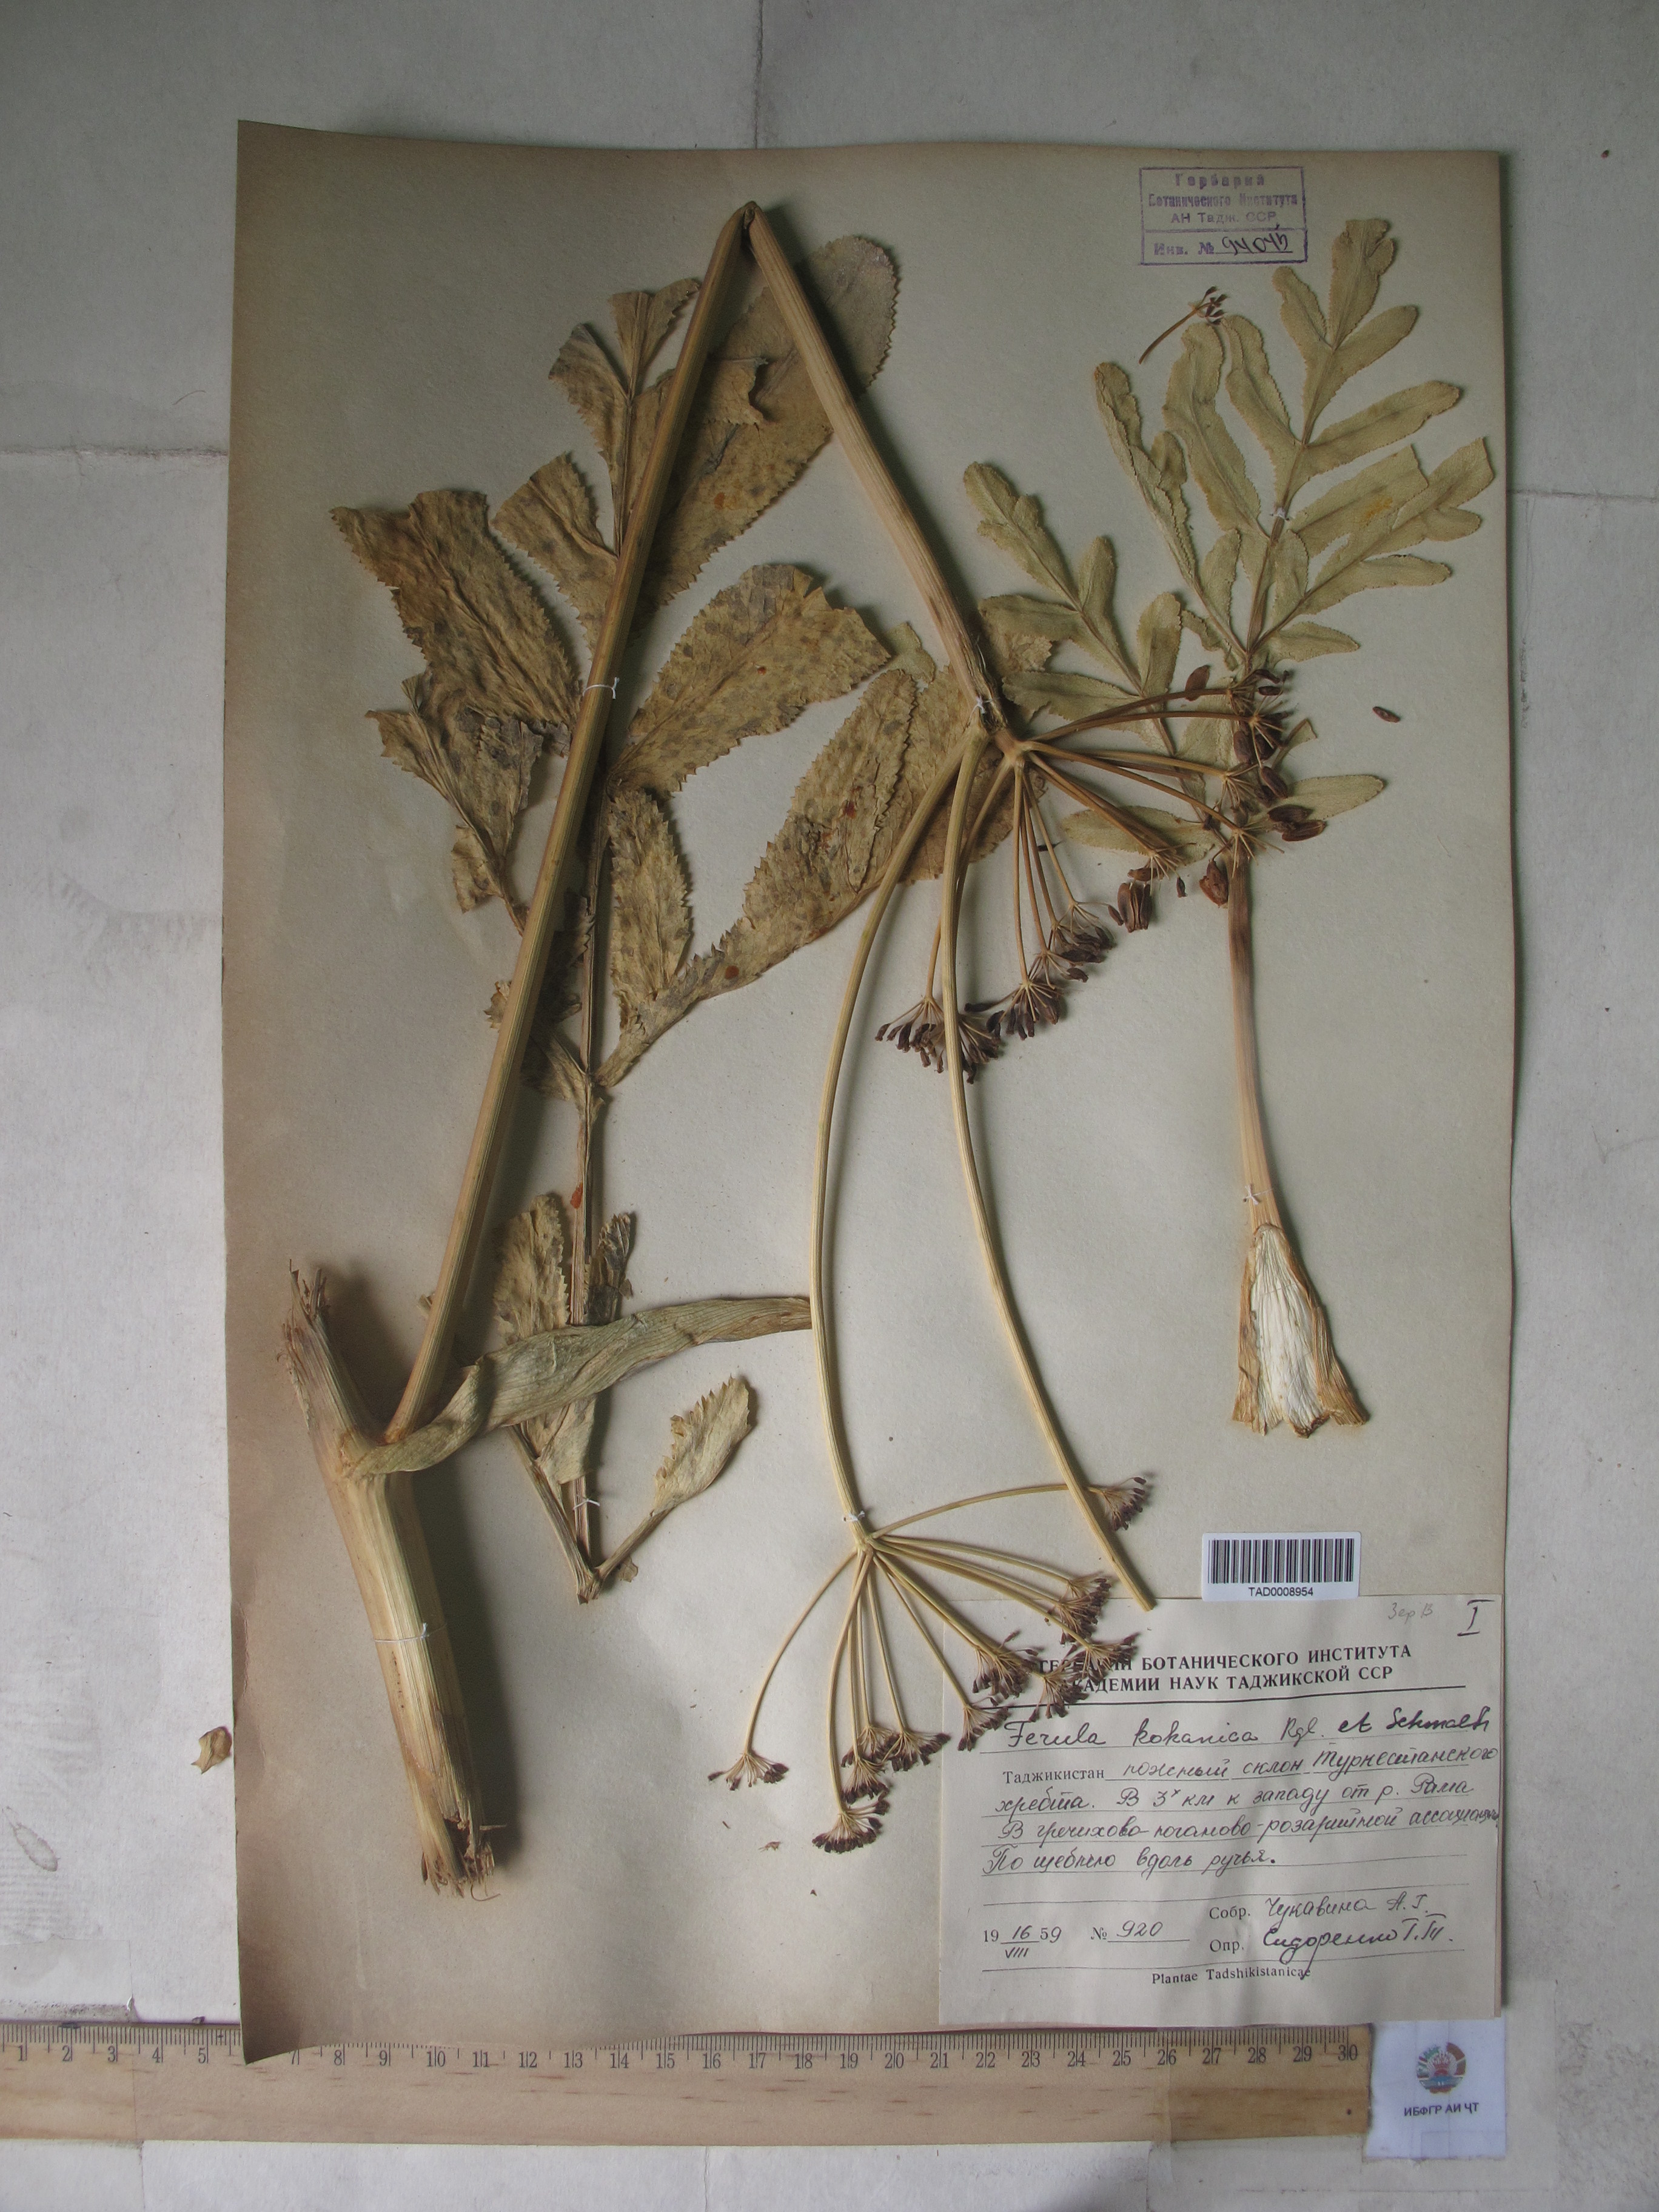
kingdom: Plantae
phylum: Tracheophyta
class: Magnoliopsida
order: Apiales
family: Apiaceae
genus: Ferula
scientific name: Ferula kokanica
